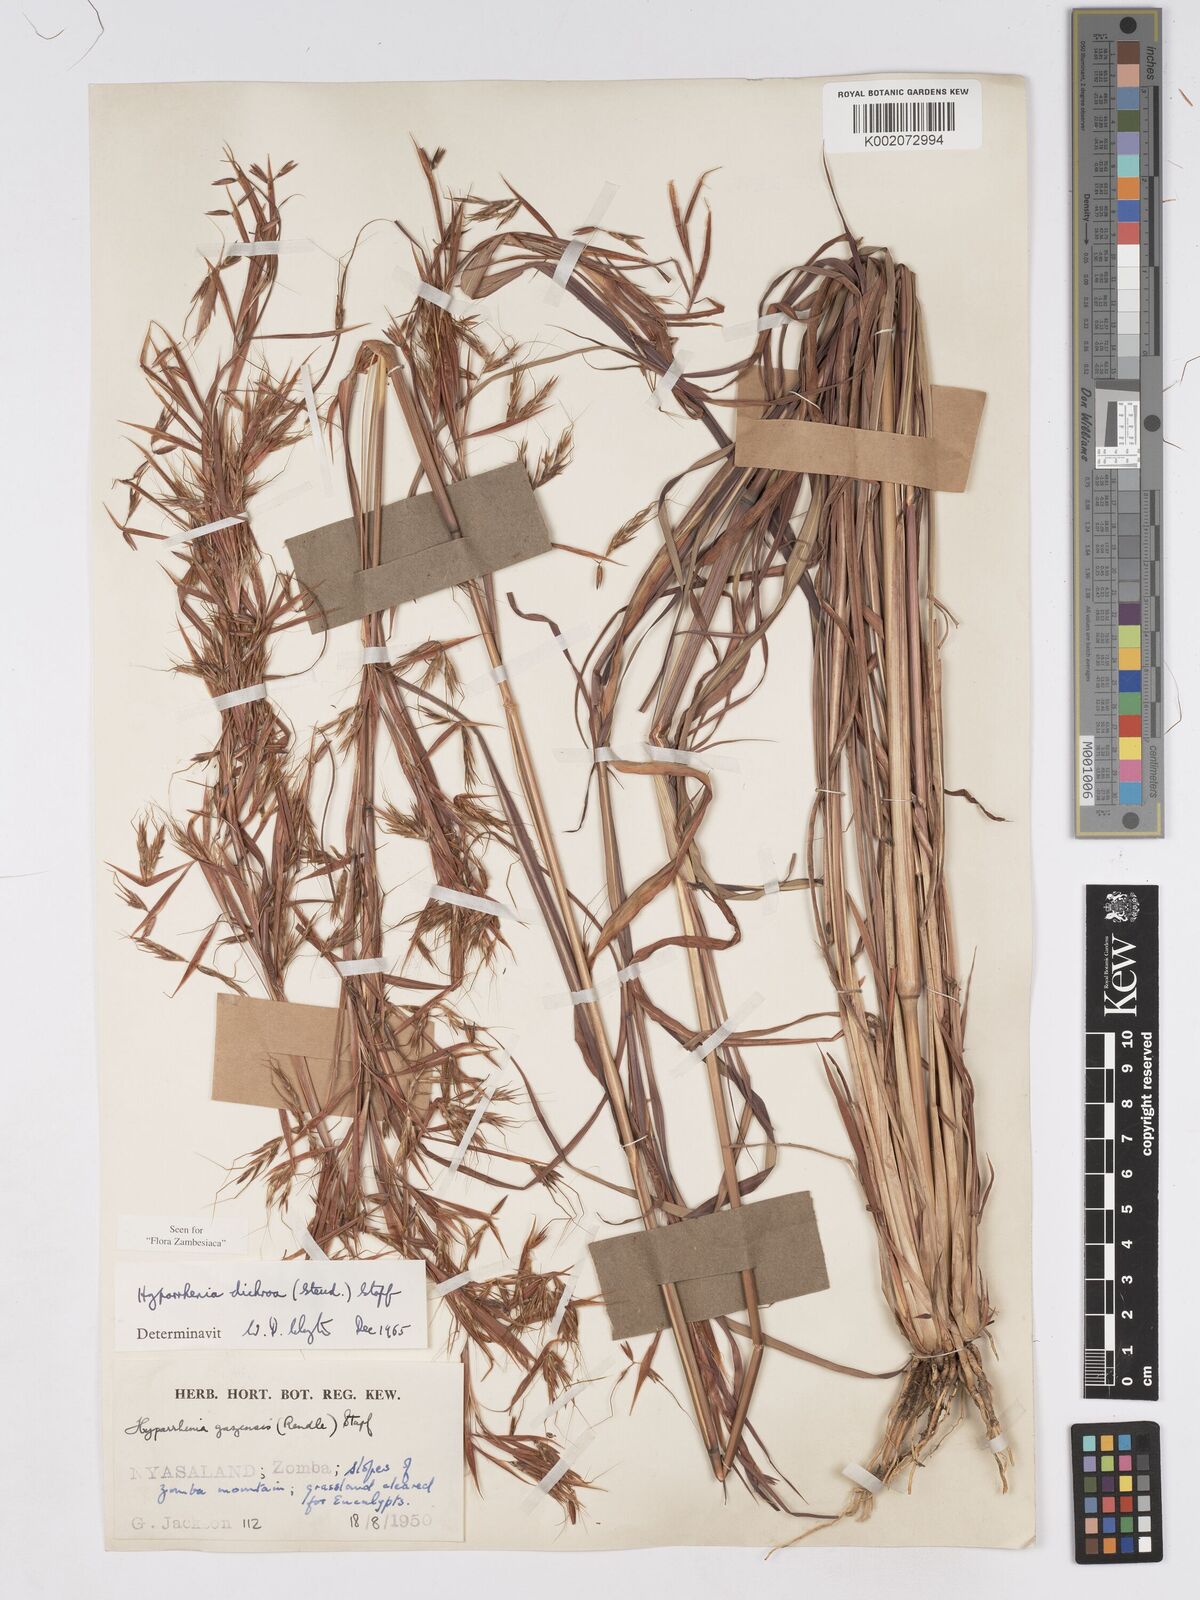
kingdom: Plantae
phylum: Tracheophyta
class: Liliopsida
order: Poales
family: Poaceae
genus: Hyparrhenia
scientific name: Hyparrhenia dichroa
